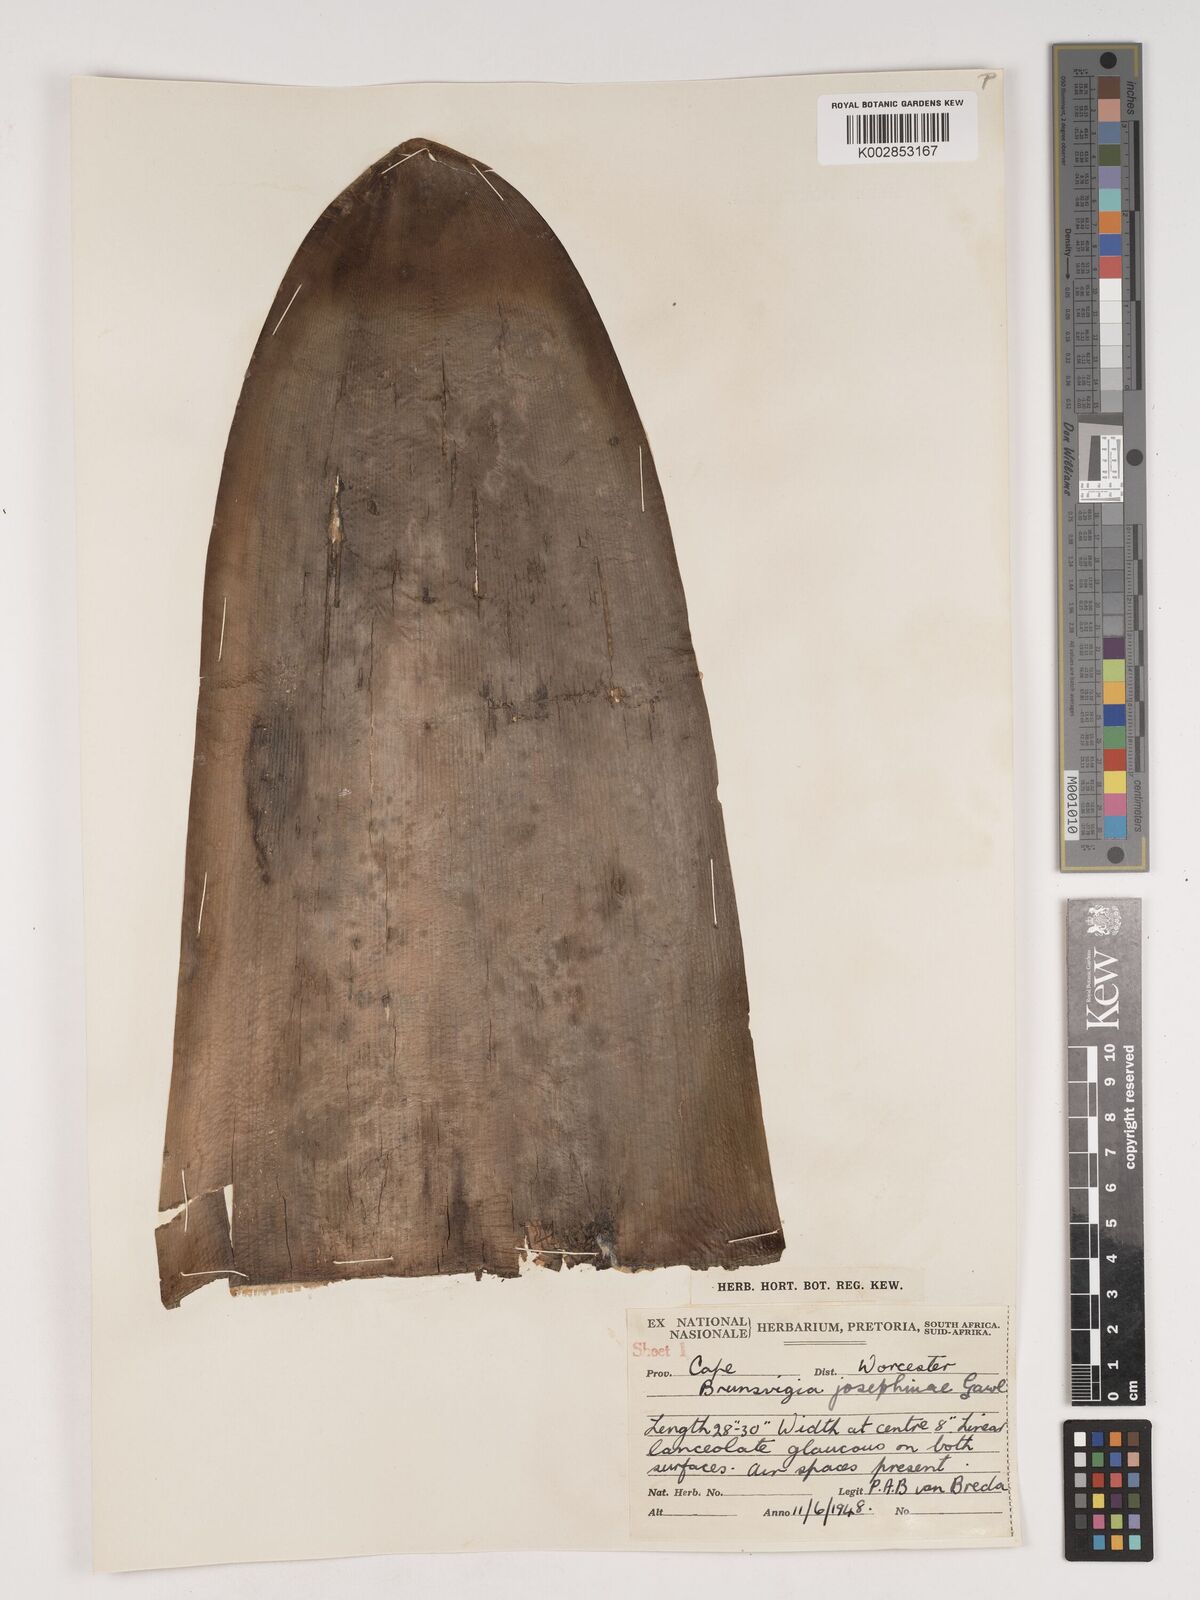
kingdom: Plantae
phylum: Tracheophyta
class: Liliopsida
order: Asparagales
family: Amaryllidaceae
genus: Brunsvigia
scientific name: Brunsvigia josephinae
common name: Josephine's-lily
